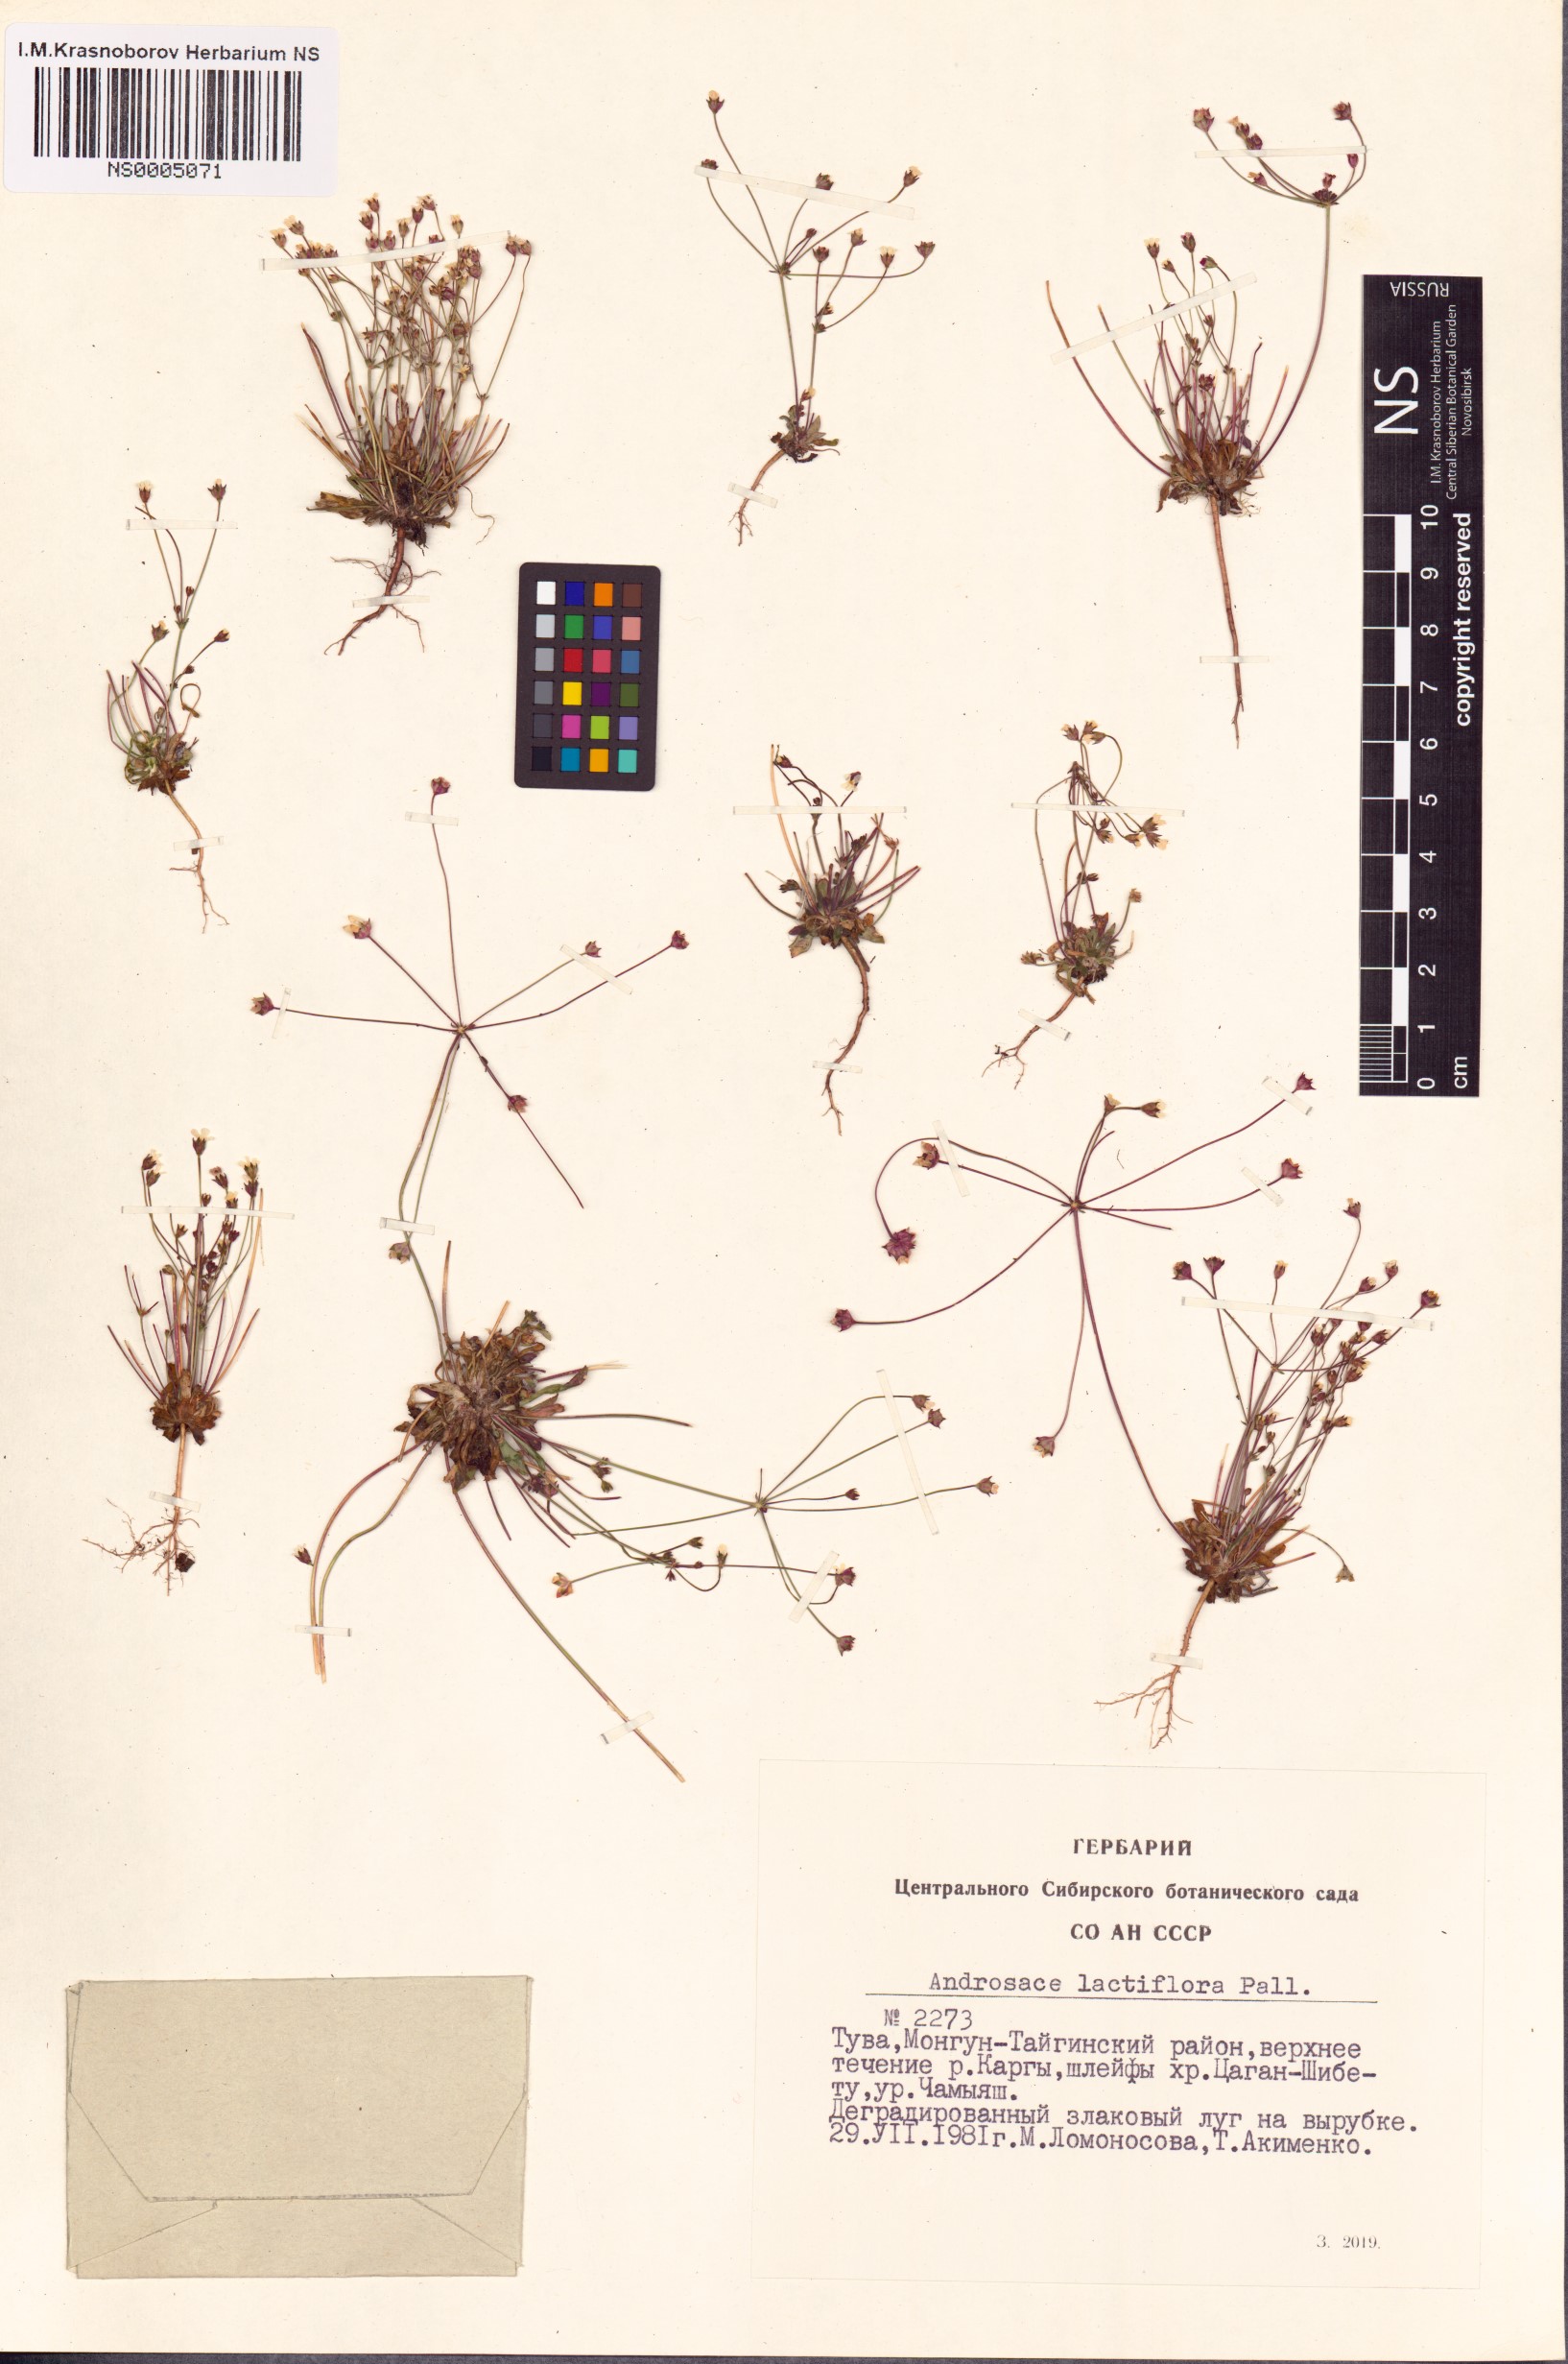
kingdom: Plantae
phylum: Tracheophyta
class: Magnoliopsida
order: Ericales
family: Primulaceae
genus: Androsace
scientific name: Androsace lactiflora
